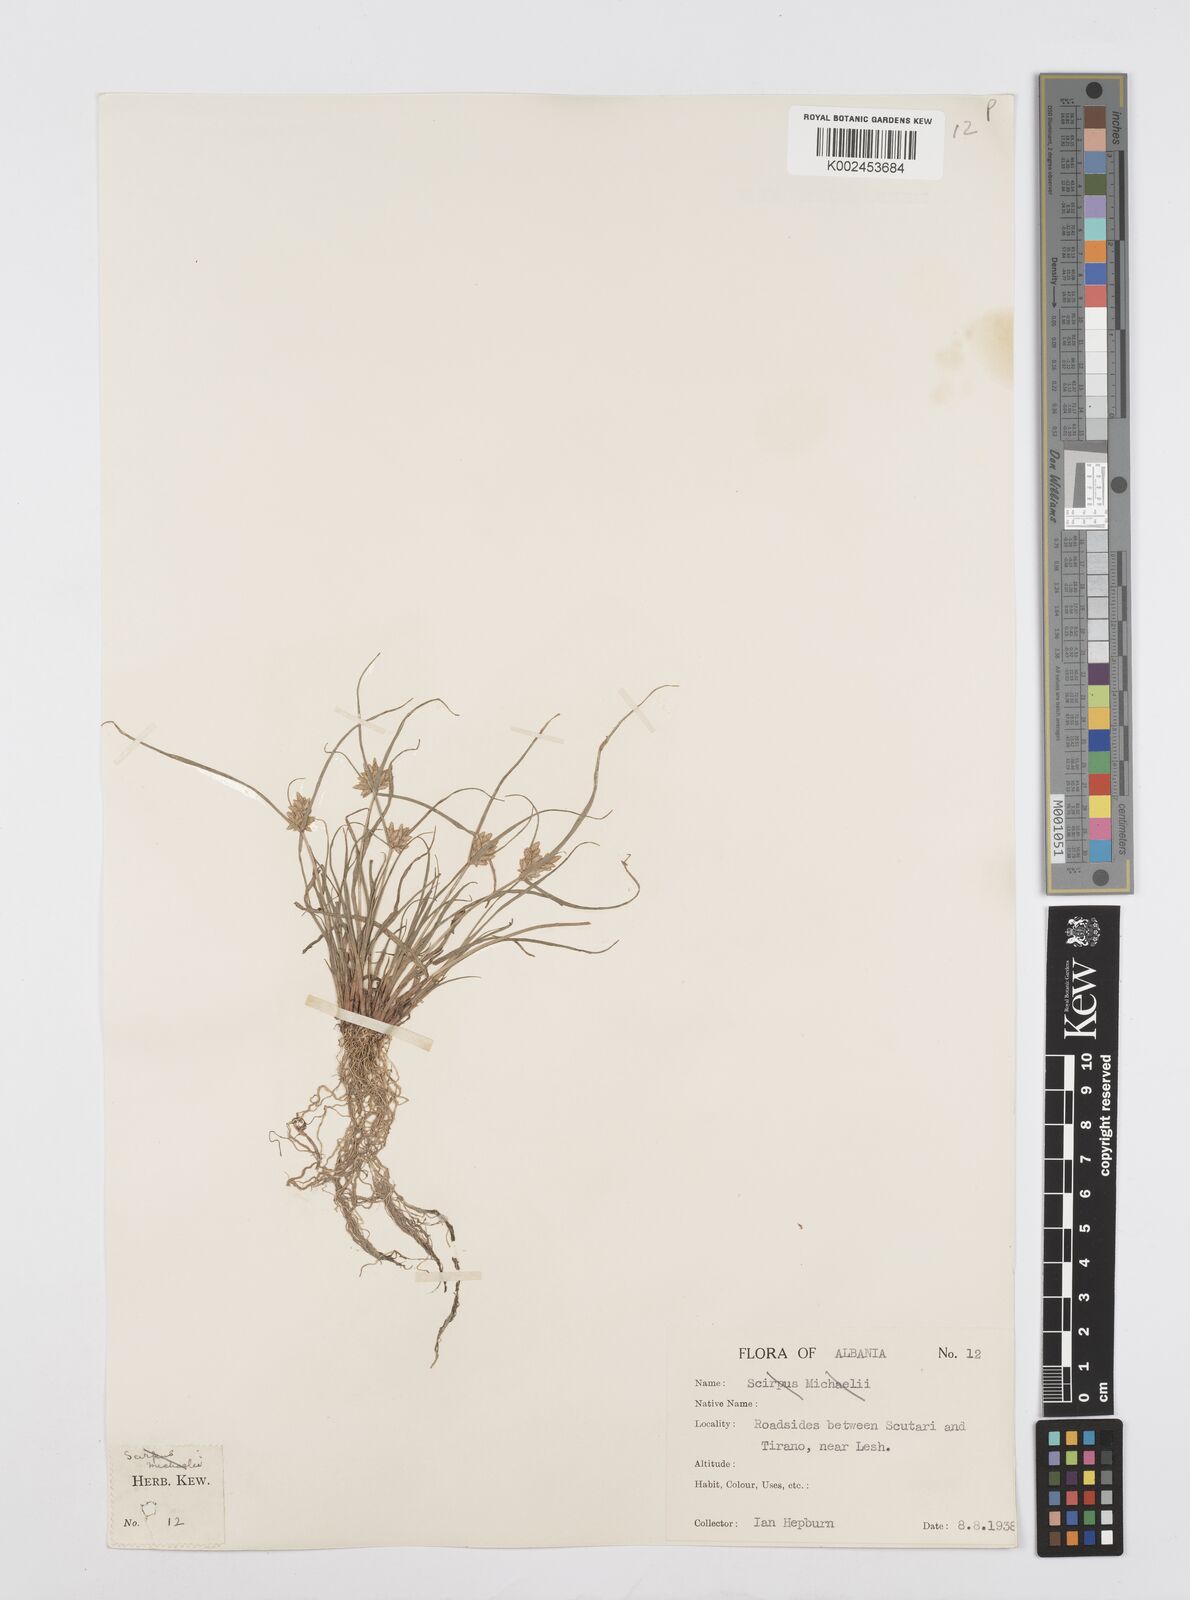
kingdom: Plantae
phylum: Tracheophyta
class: Liliopsida
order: Poales
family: Cyperaceae
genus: Cyperus
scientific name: Cyperus flavescens
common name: Yellow galingale
